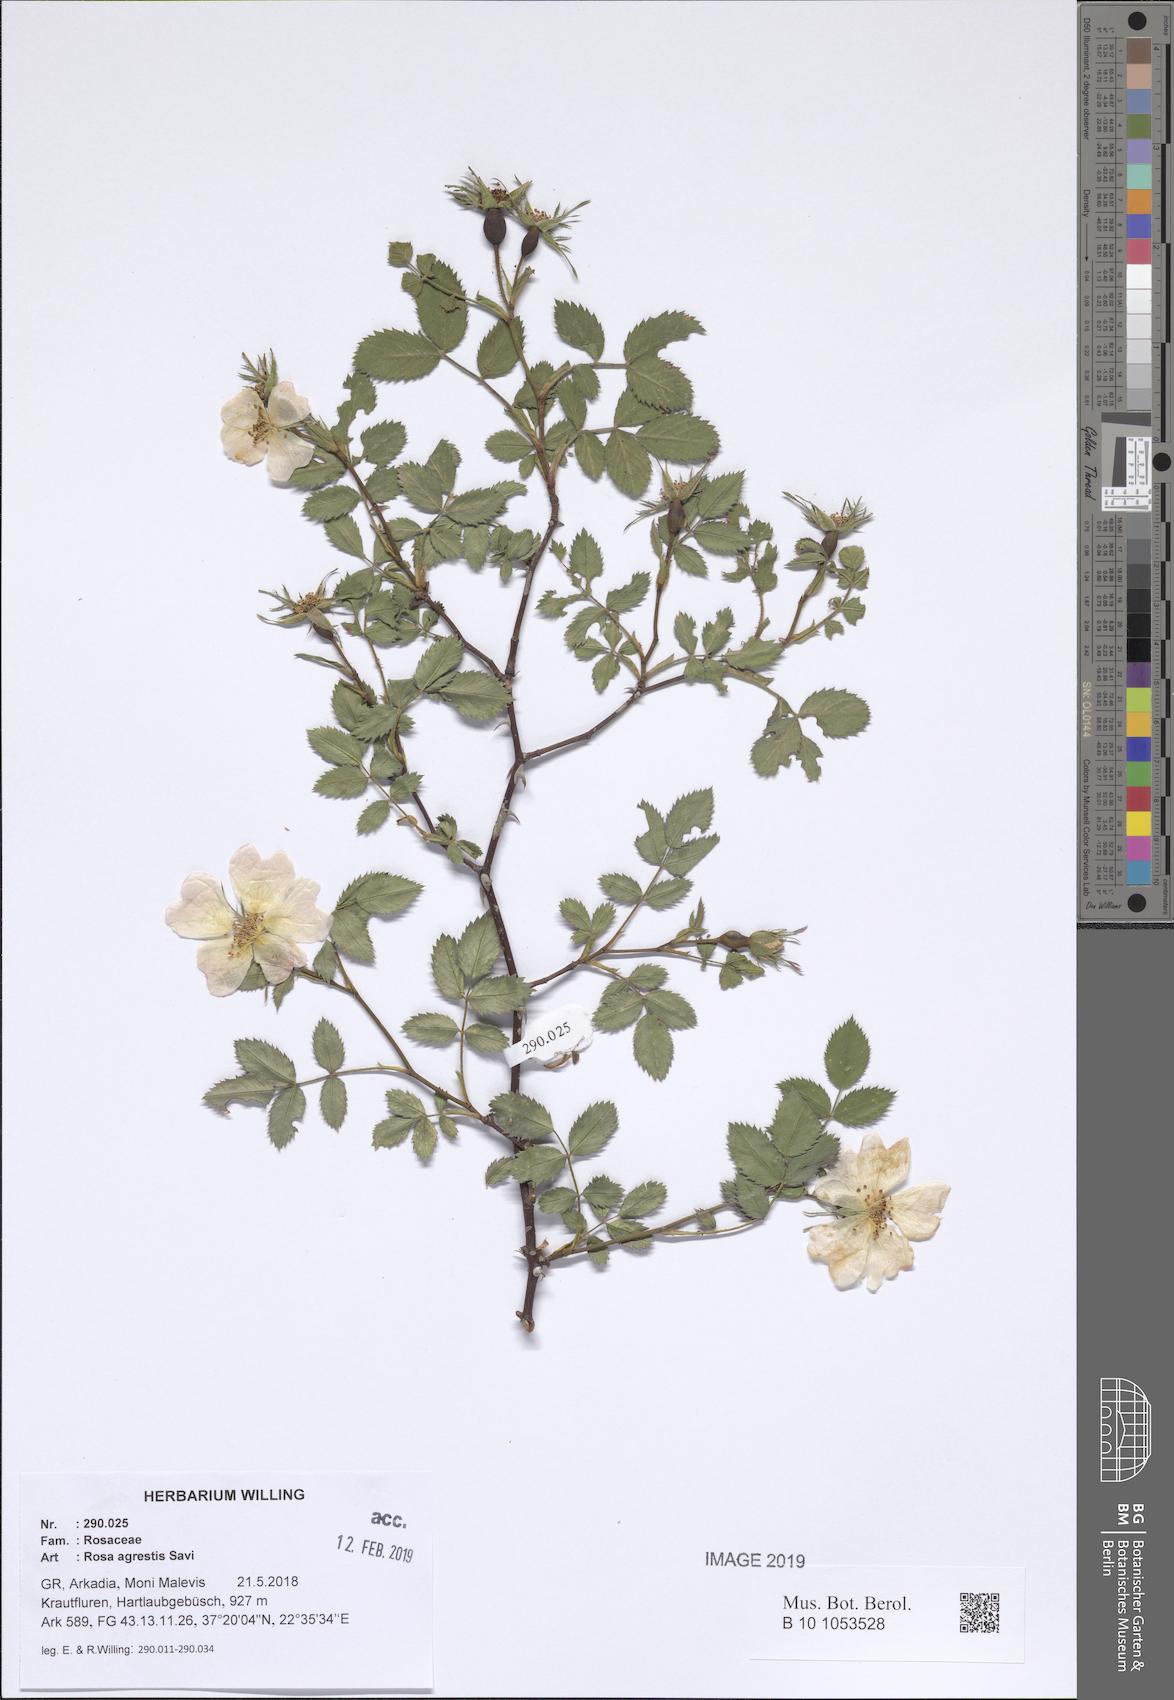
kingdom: Plantae
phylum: Tracheophyta
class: Magnoliopsida
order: Rosales
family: Rosaceae
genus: Rosa
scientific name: Rosa agrestis
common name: Fieldbriar
